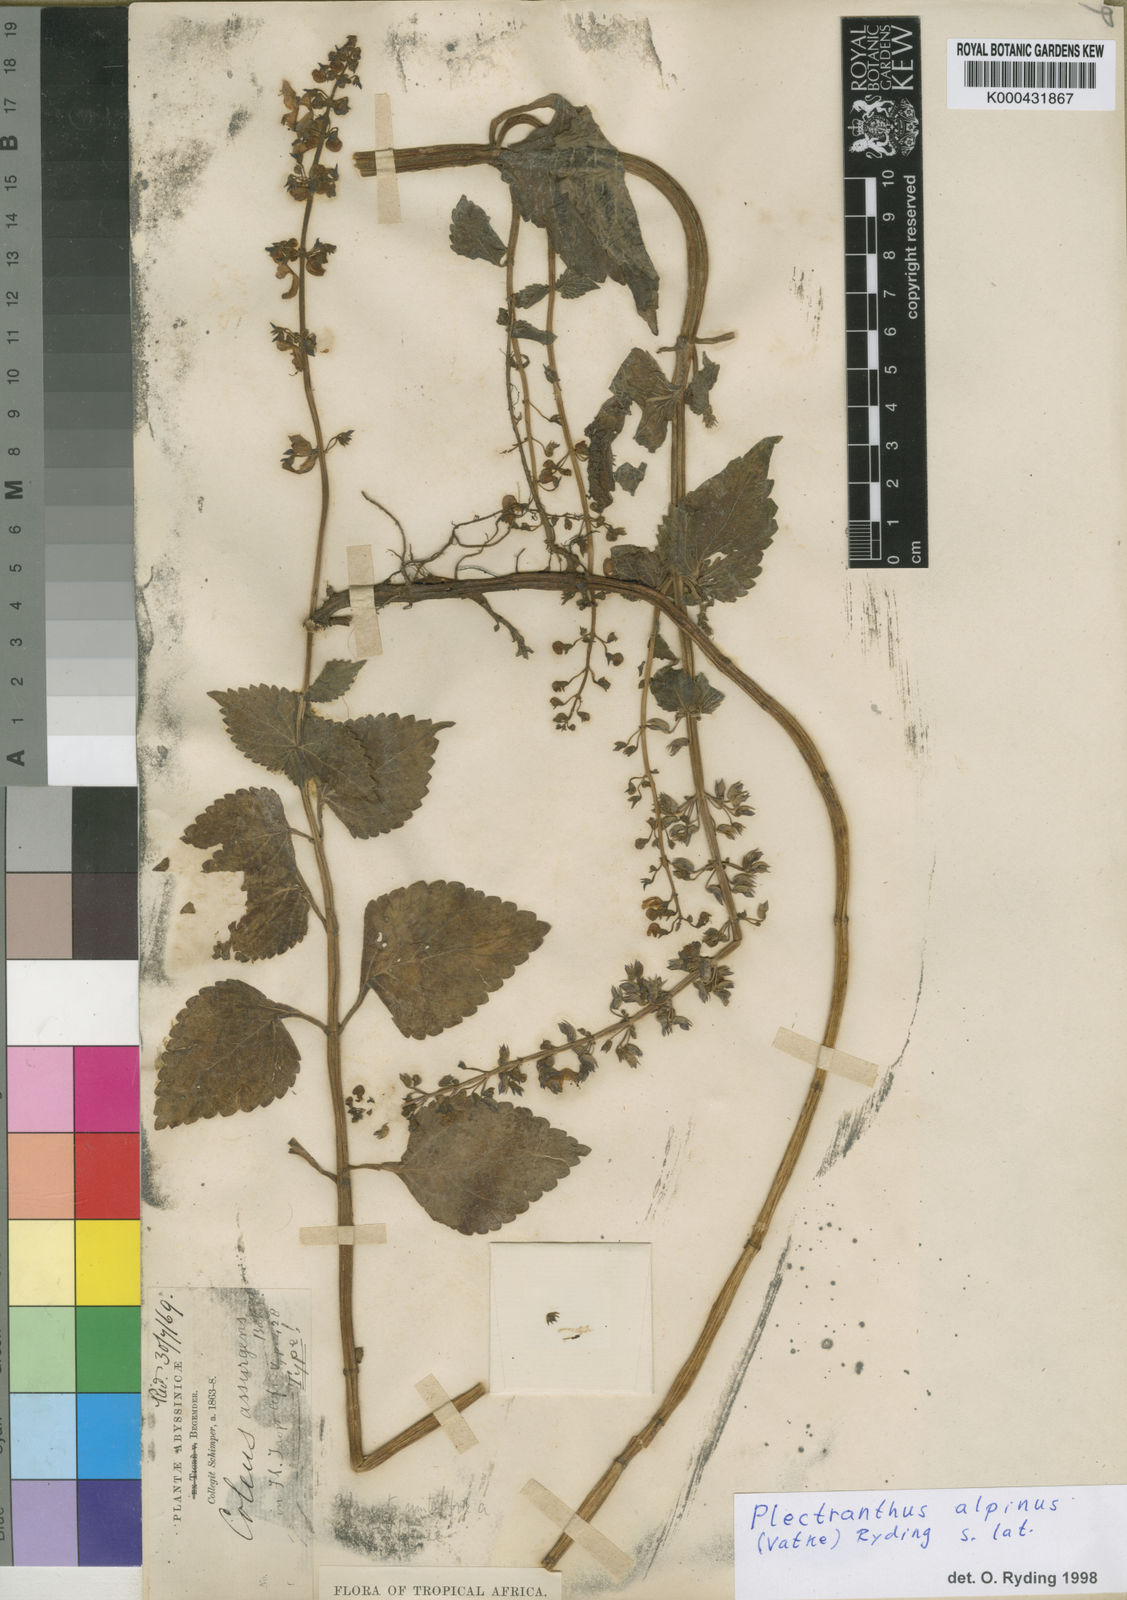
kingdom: Plantae
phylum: Tracheophyta
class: Magnoliopsida
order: Lamiales
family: Lamiaceae
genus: Coleus
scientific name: Coleus alpinus
